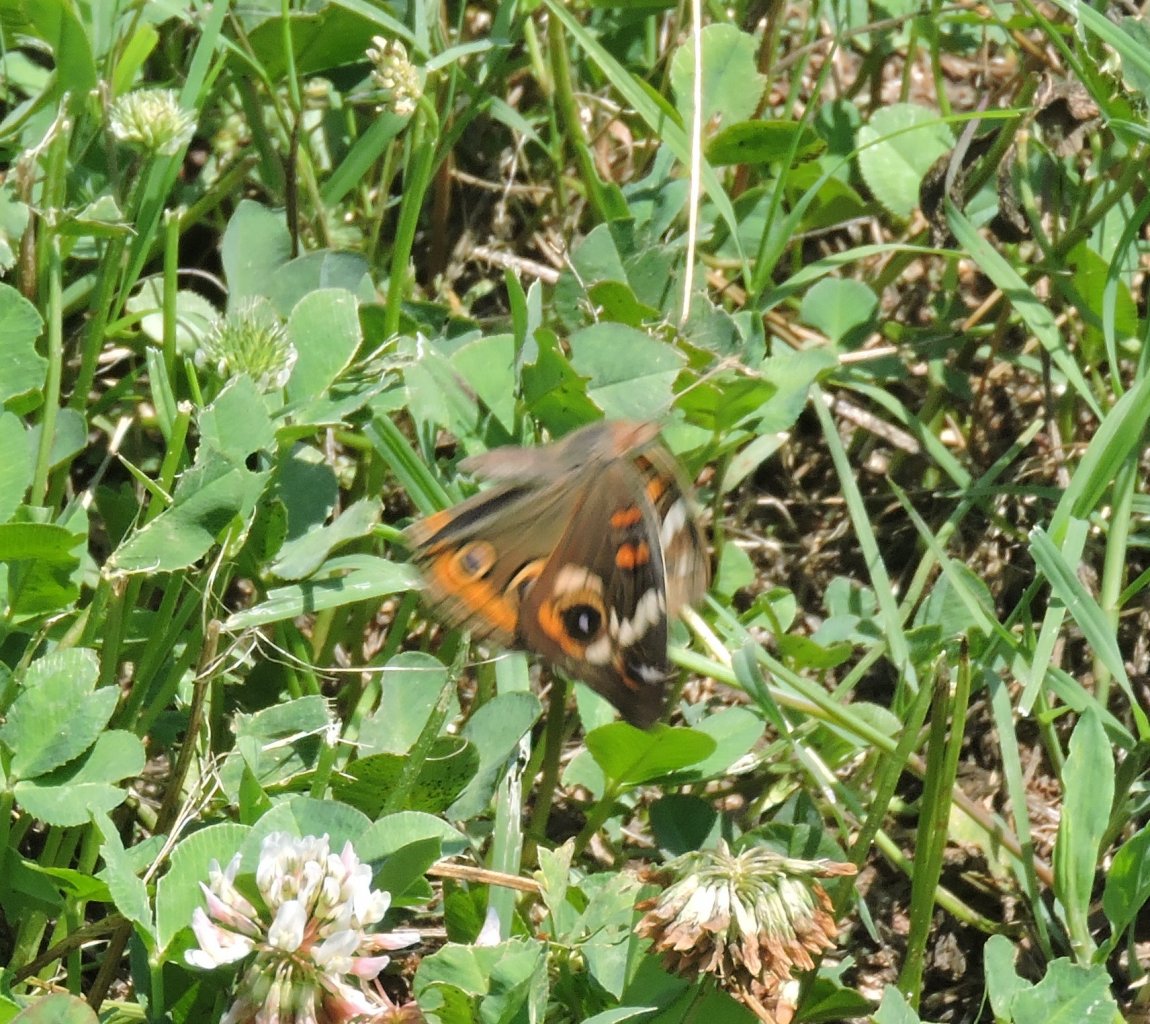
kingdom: Animalia
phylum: Arthropoda
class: Insecta
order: Lepidoptera
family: Nymphalidae
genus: Junonia
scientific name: Junonia coenia
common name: Common Buckeye
